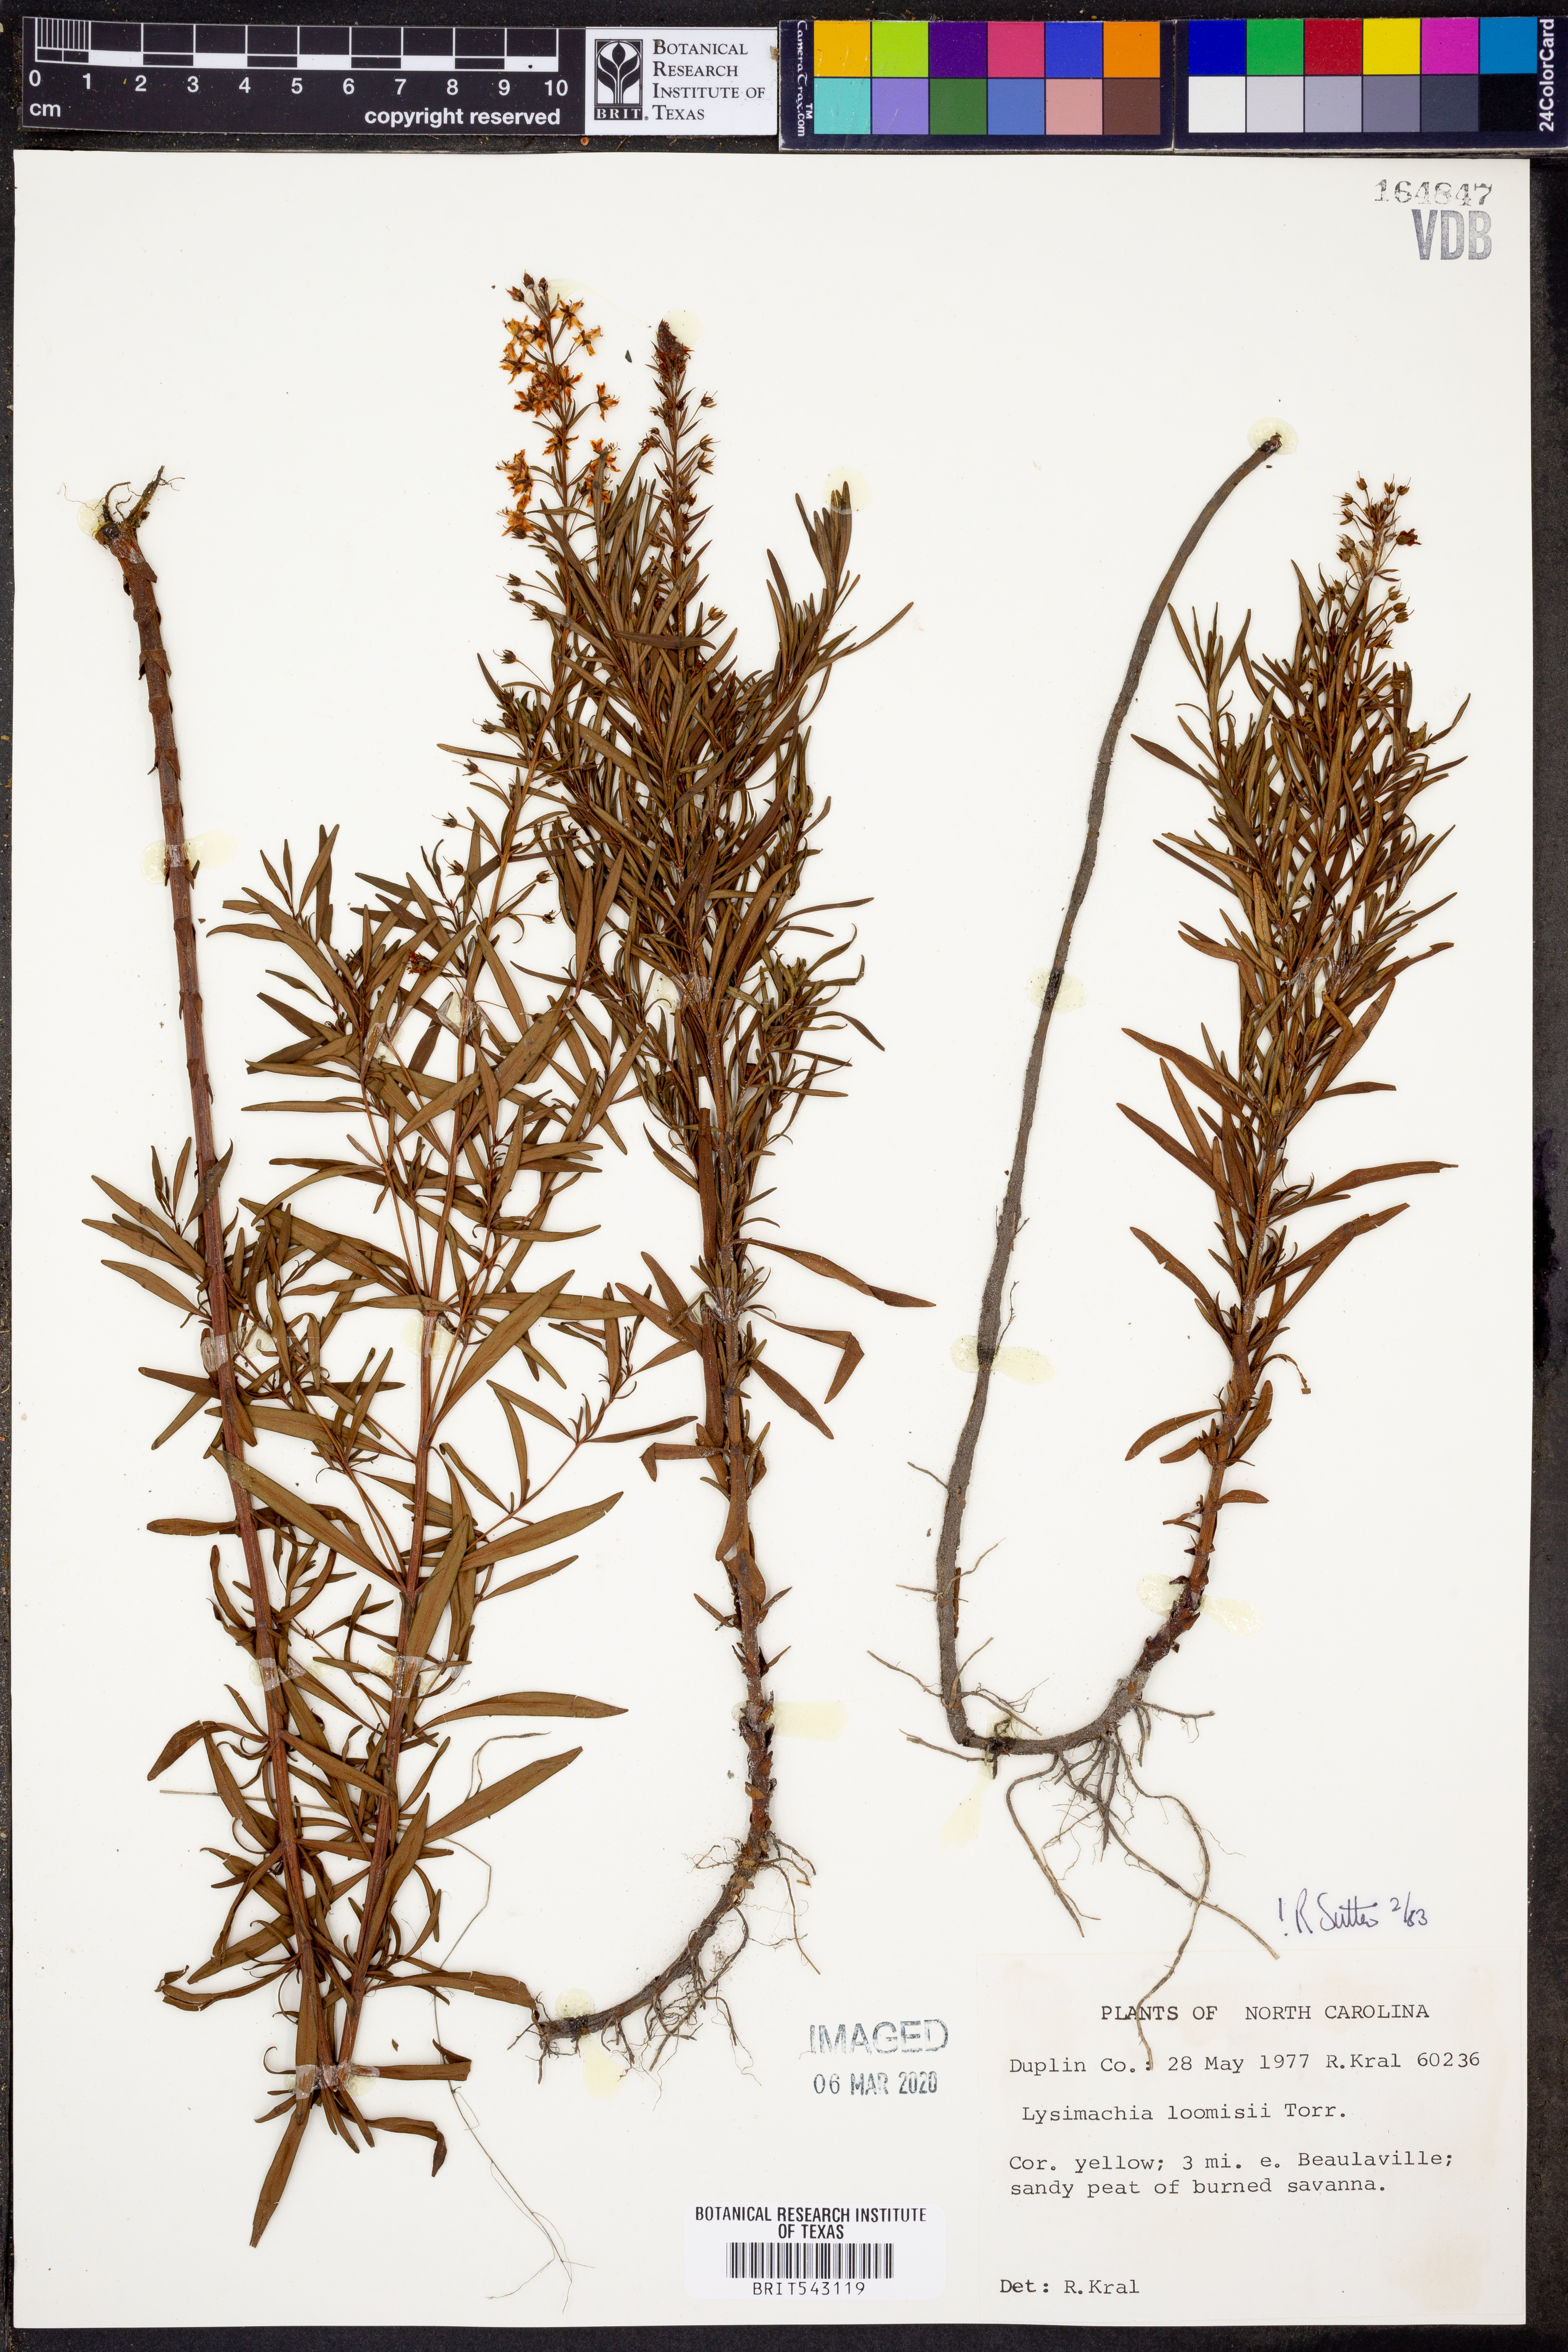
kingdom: Plantae
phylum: Tracheophyta
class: Magnoliopsida
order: Ericales
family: Primulaceae
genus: Lysimachia
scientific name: Lysimachia loomisii
